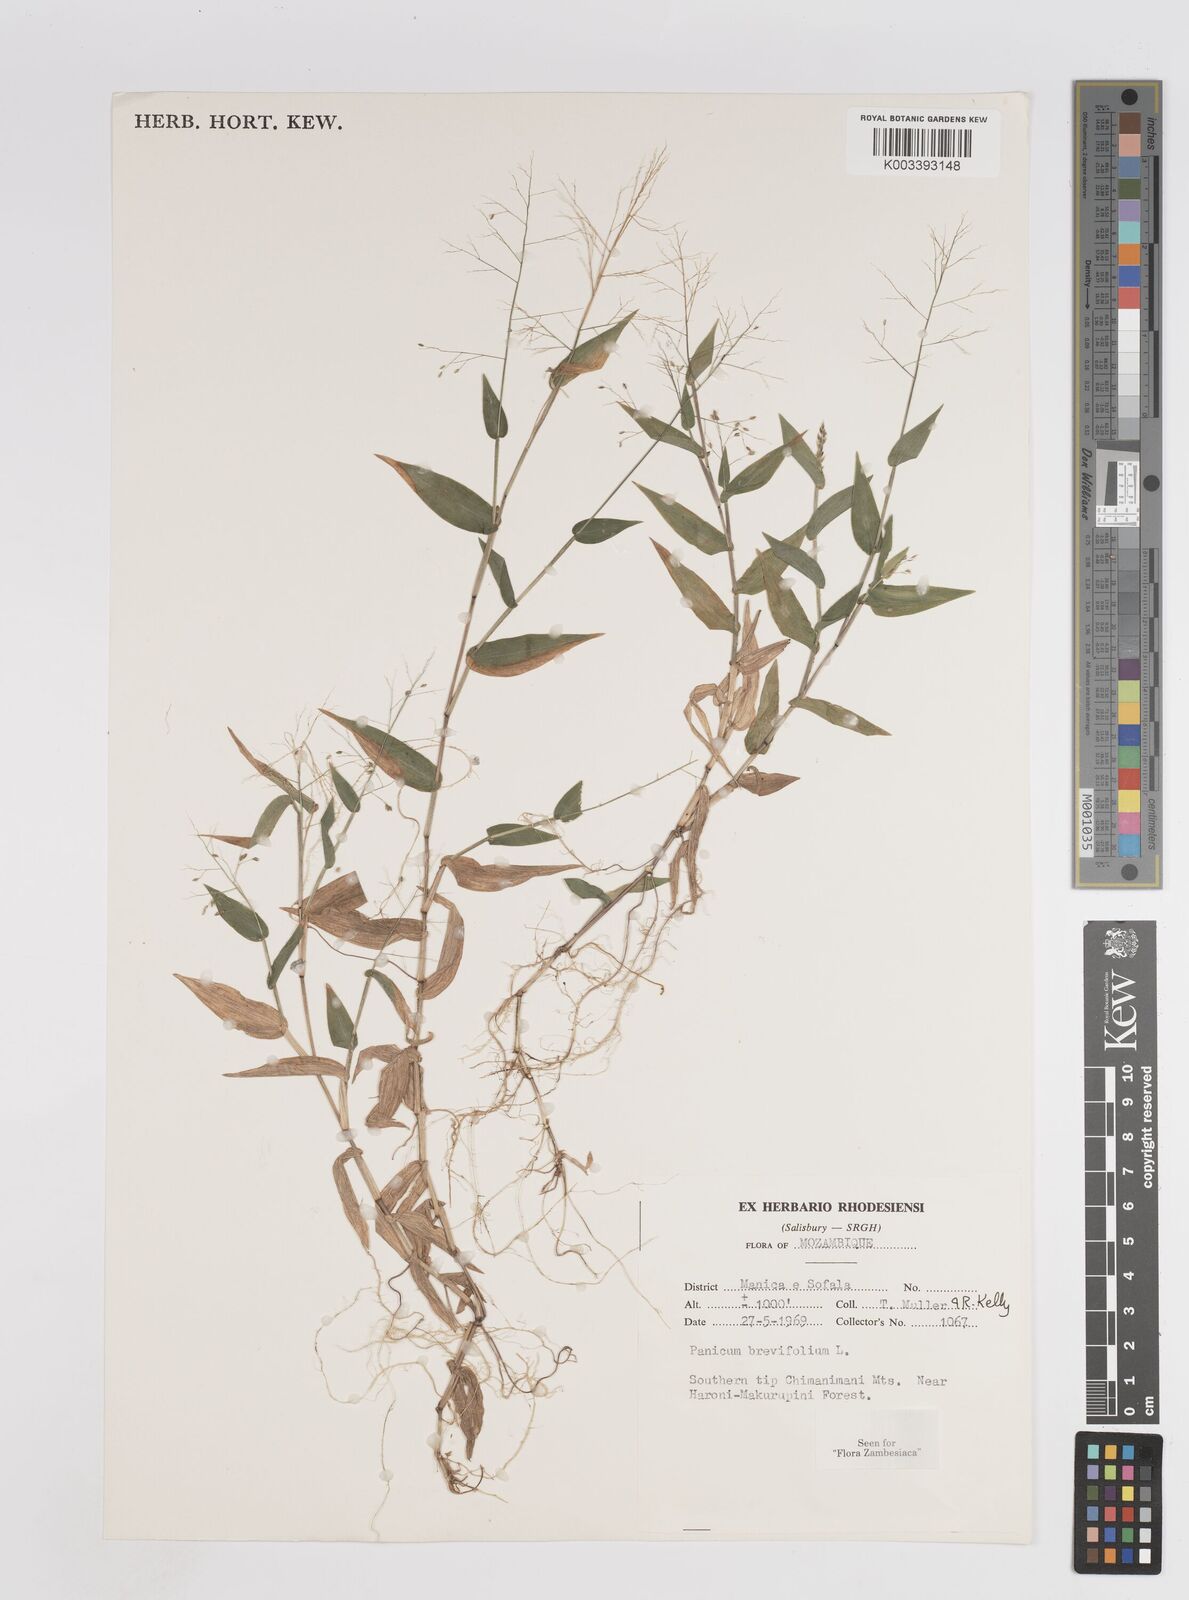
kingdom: Plantae
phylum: Tracheophyta
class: Liliopsida
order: Poales
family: Poaceae
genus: Panicum
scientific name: Panicum brevifolium
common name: Shortleaf panic grass
